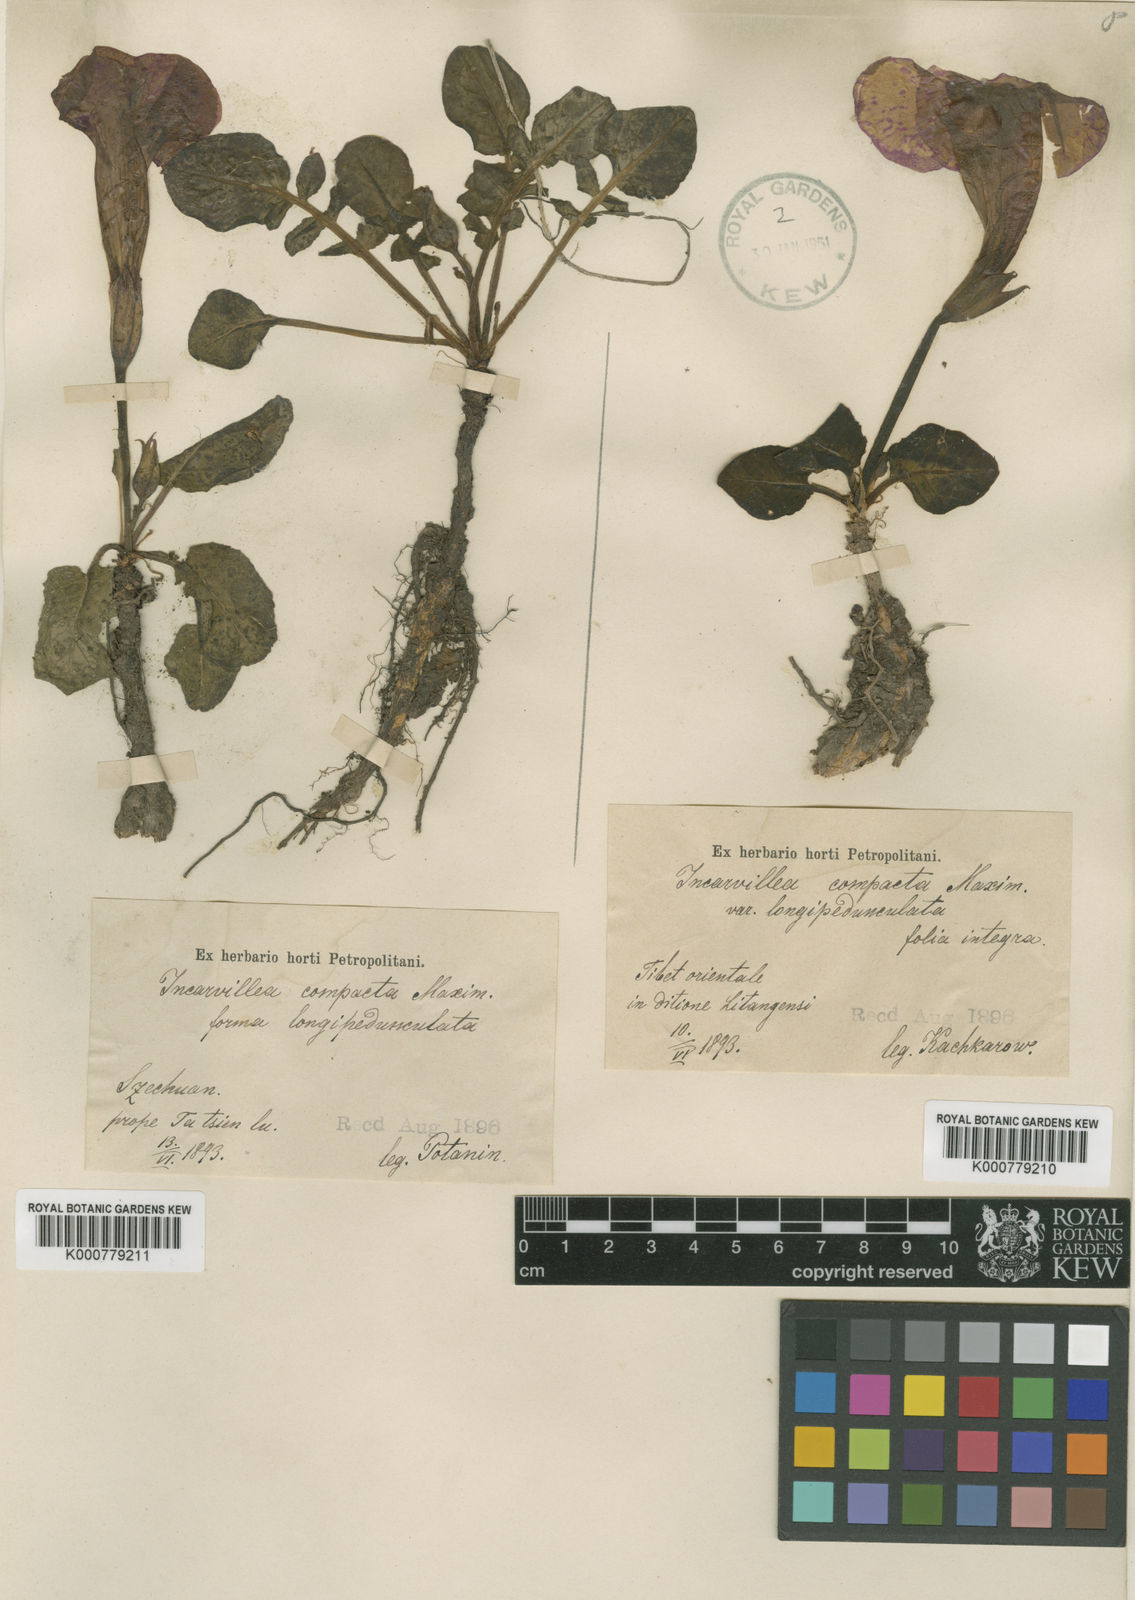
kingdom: Plantae
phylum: Tracheophyta
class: Magnoliopsida
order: Lamiales
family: Bignoniaceae
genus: Incarvillea
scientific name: Incarvillea
